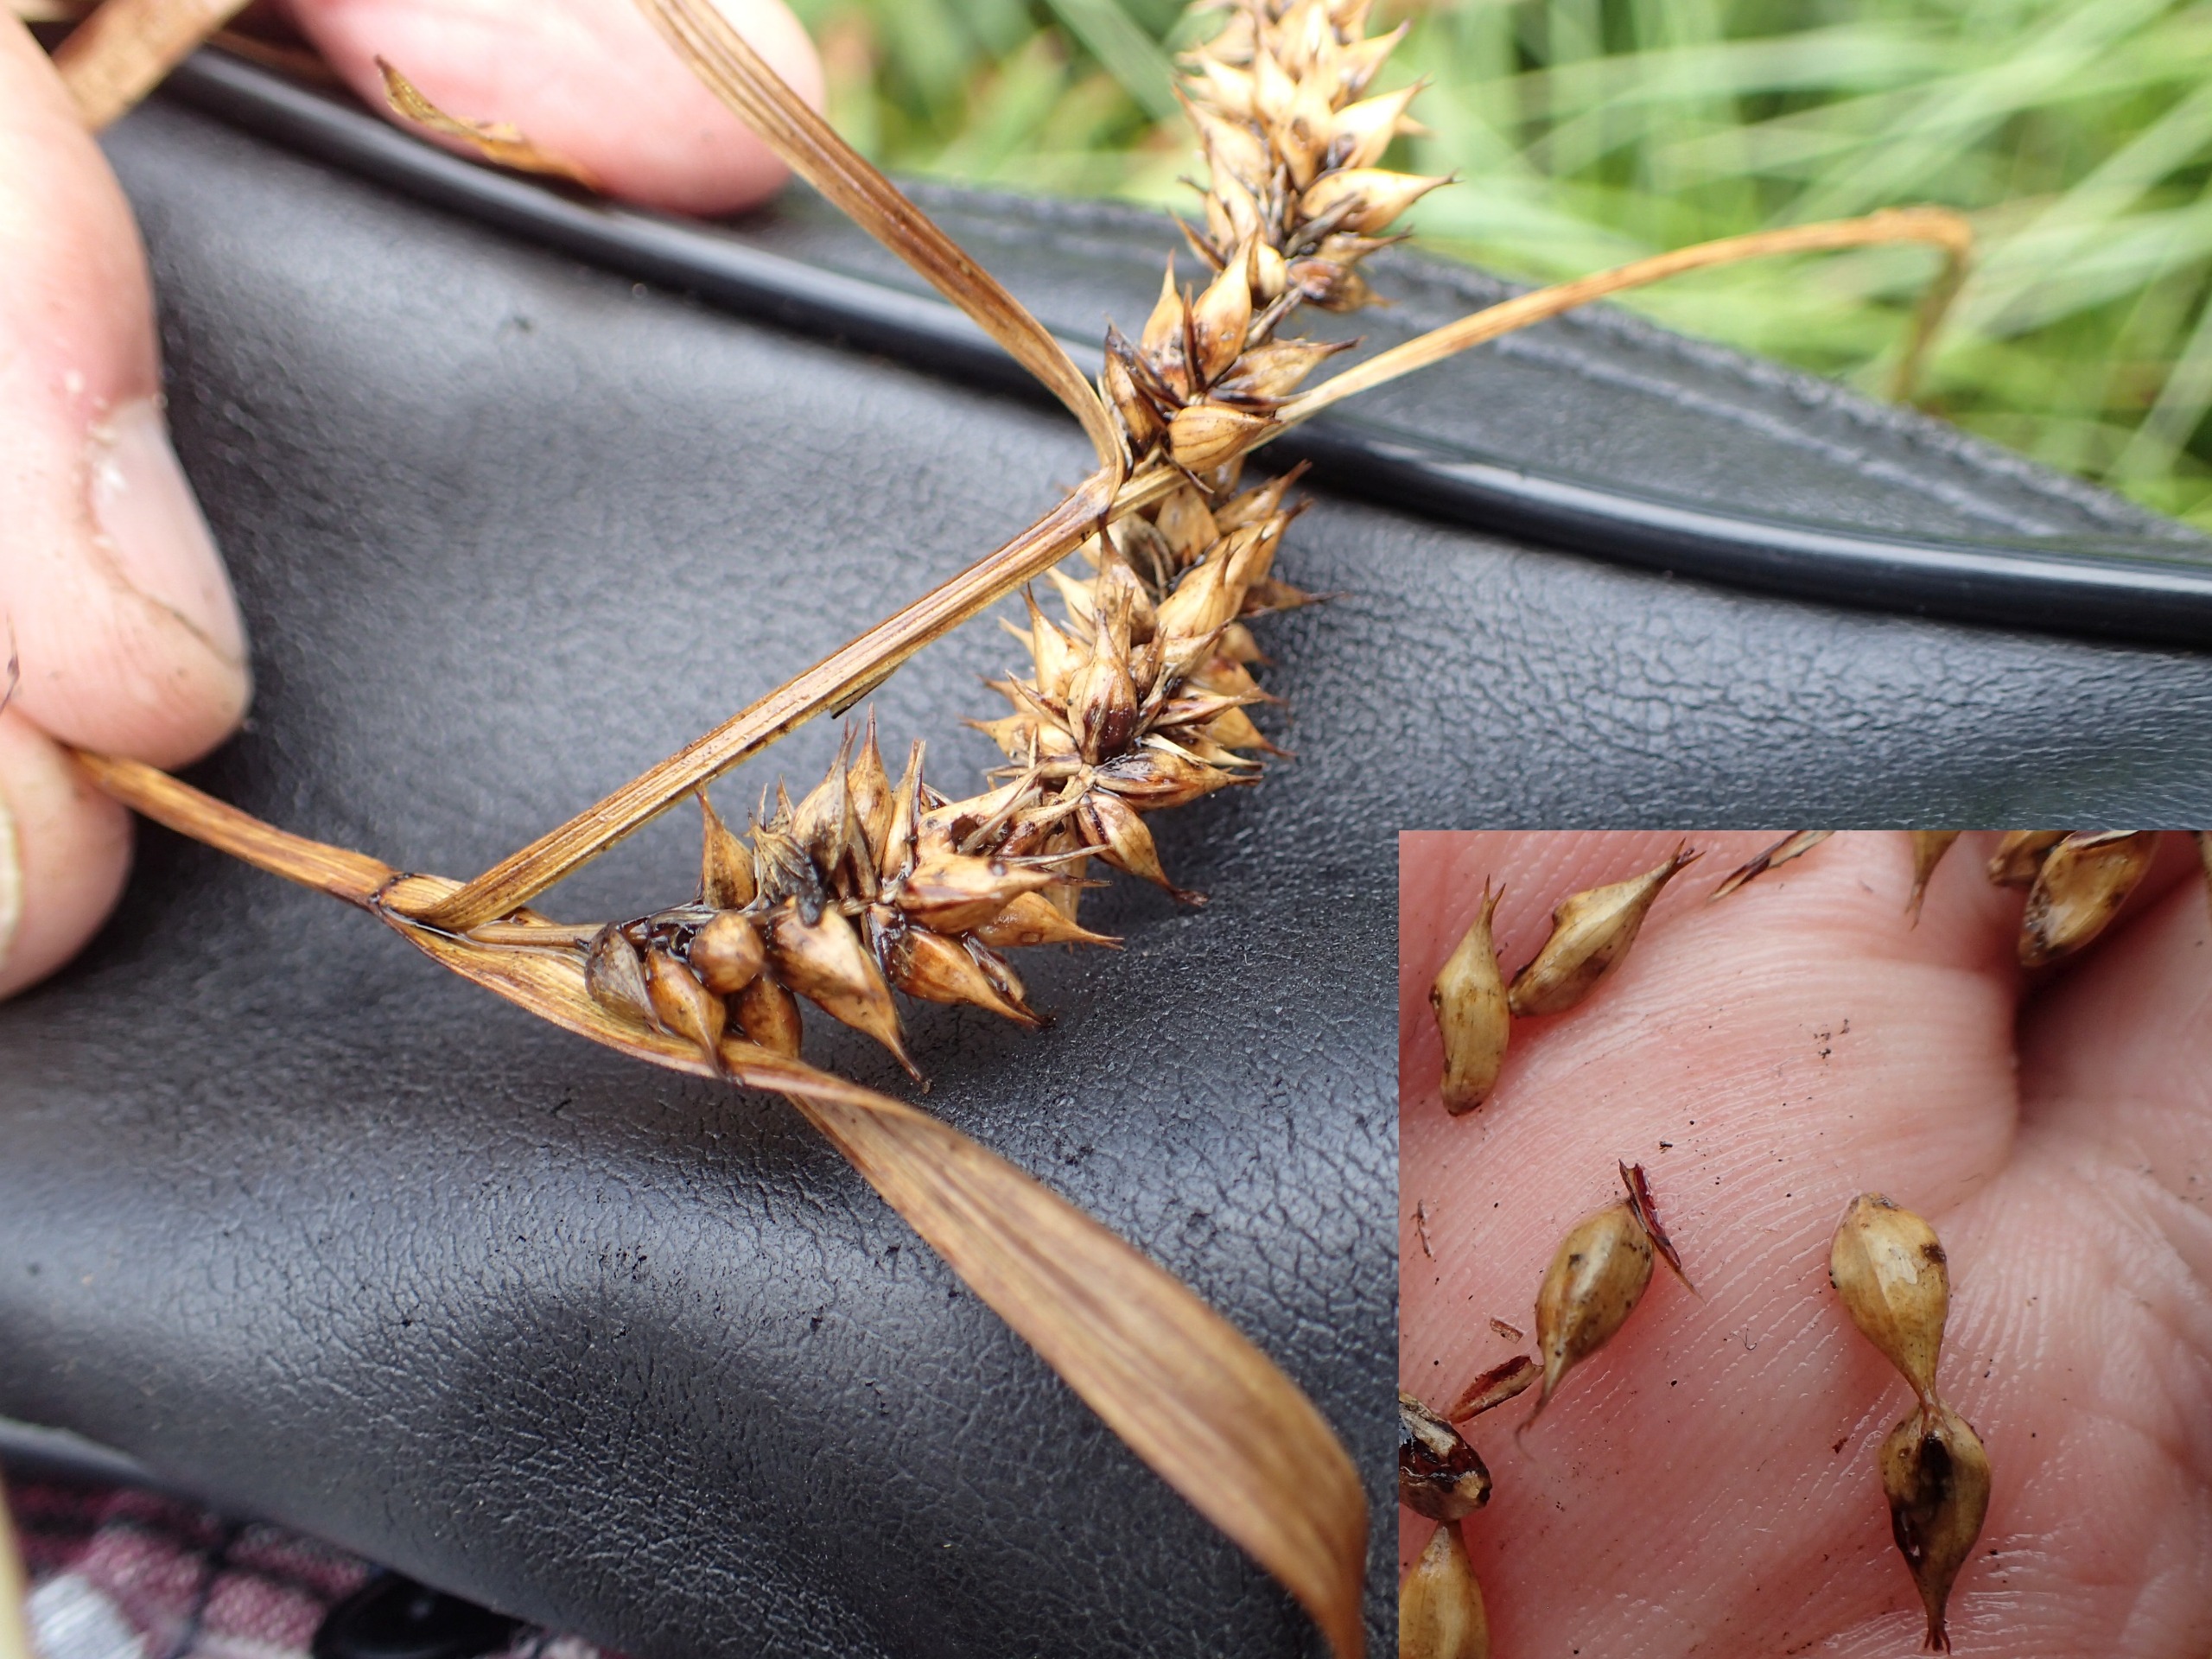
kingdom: Plantae
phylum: Tracheophyta
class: Liliopsida
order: Poales
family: Cyperaceae
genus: Carex
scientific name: Carex vesicaria
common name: Blære-star
